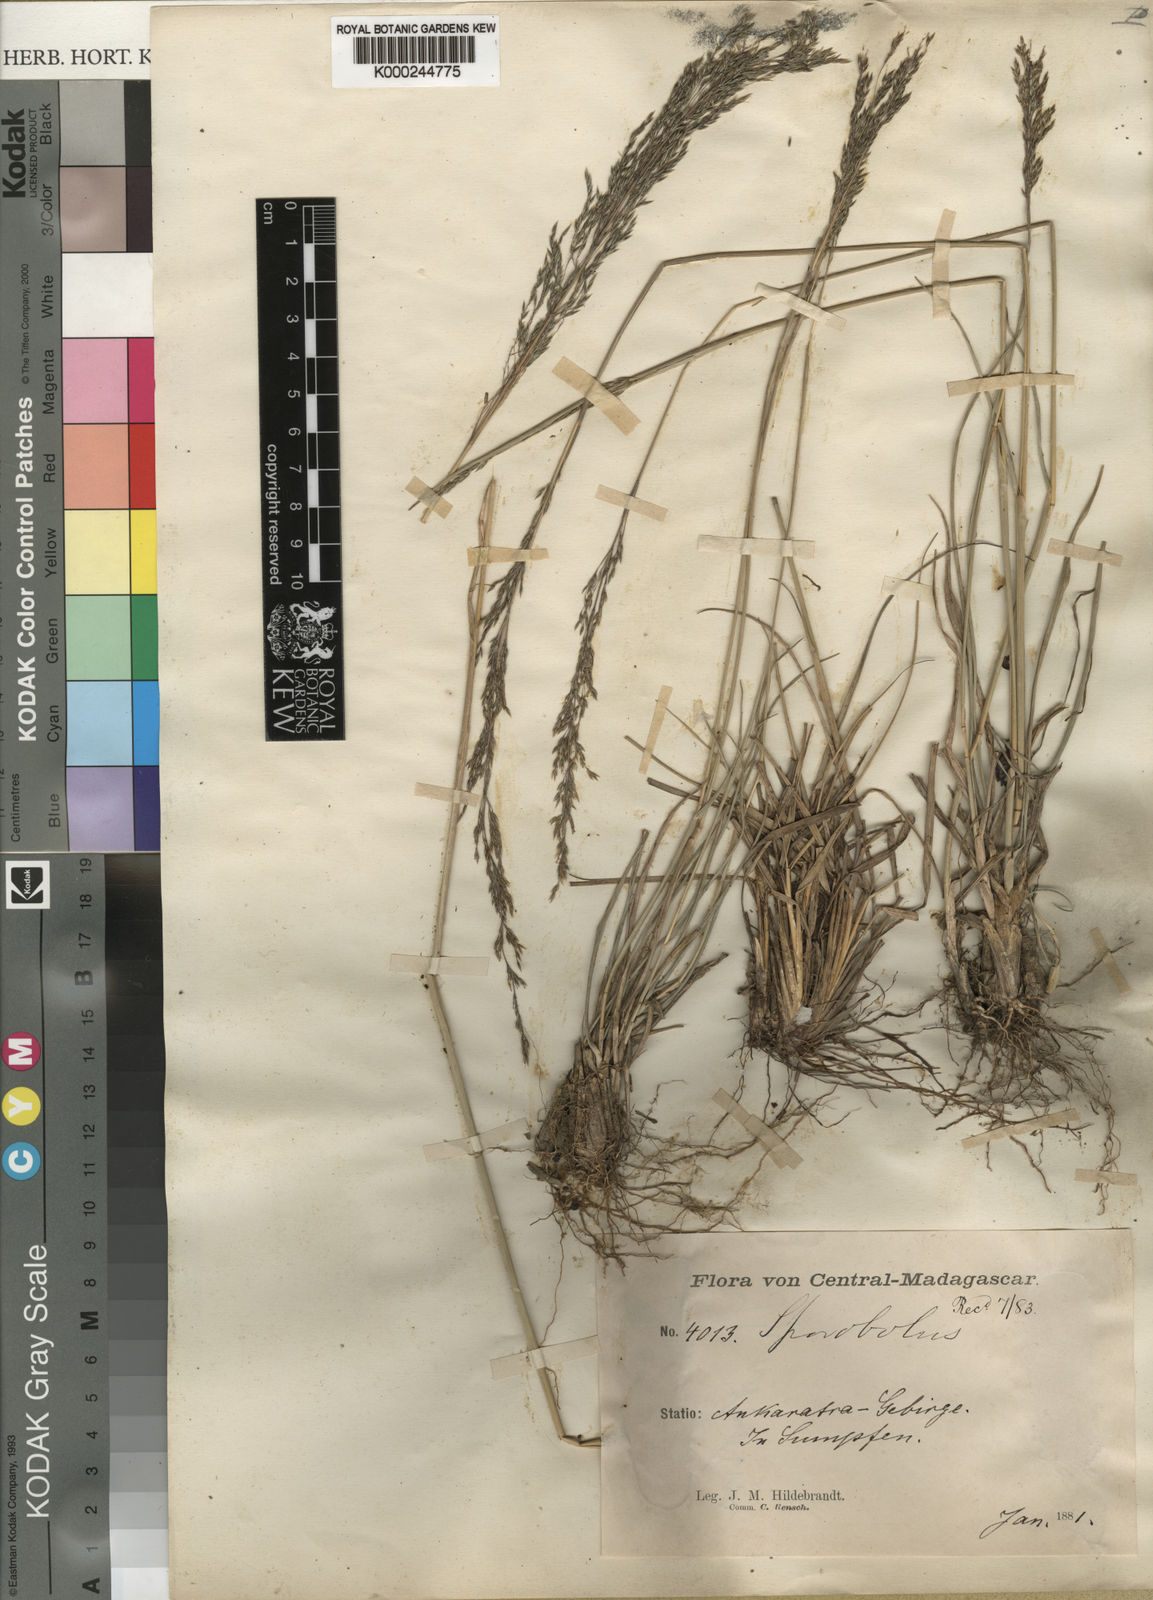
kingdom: Plantae
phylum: Tracheophyta
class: Liliopsida
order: Poales
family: Poaceae
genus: Sporobolus
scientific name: Sporobolus centrifugus
